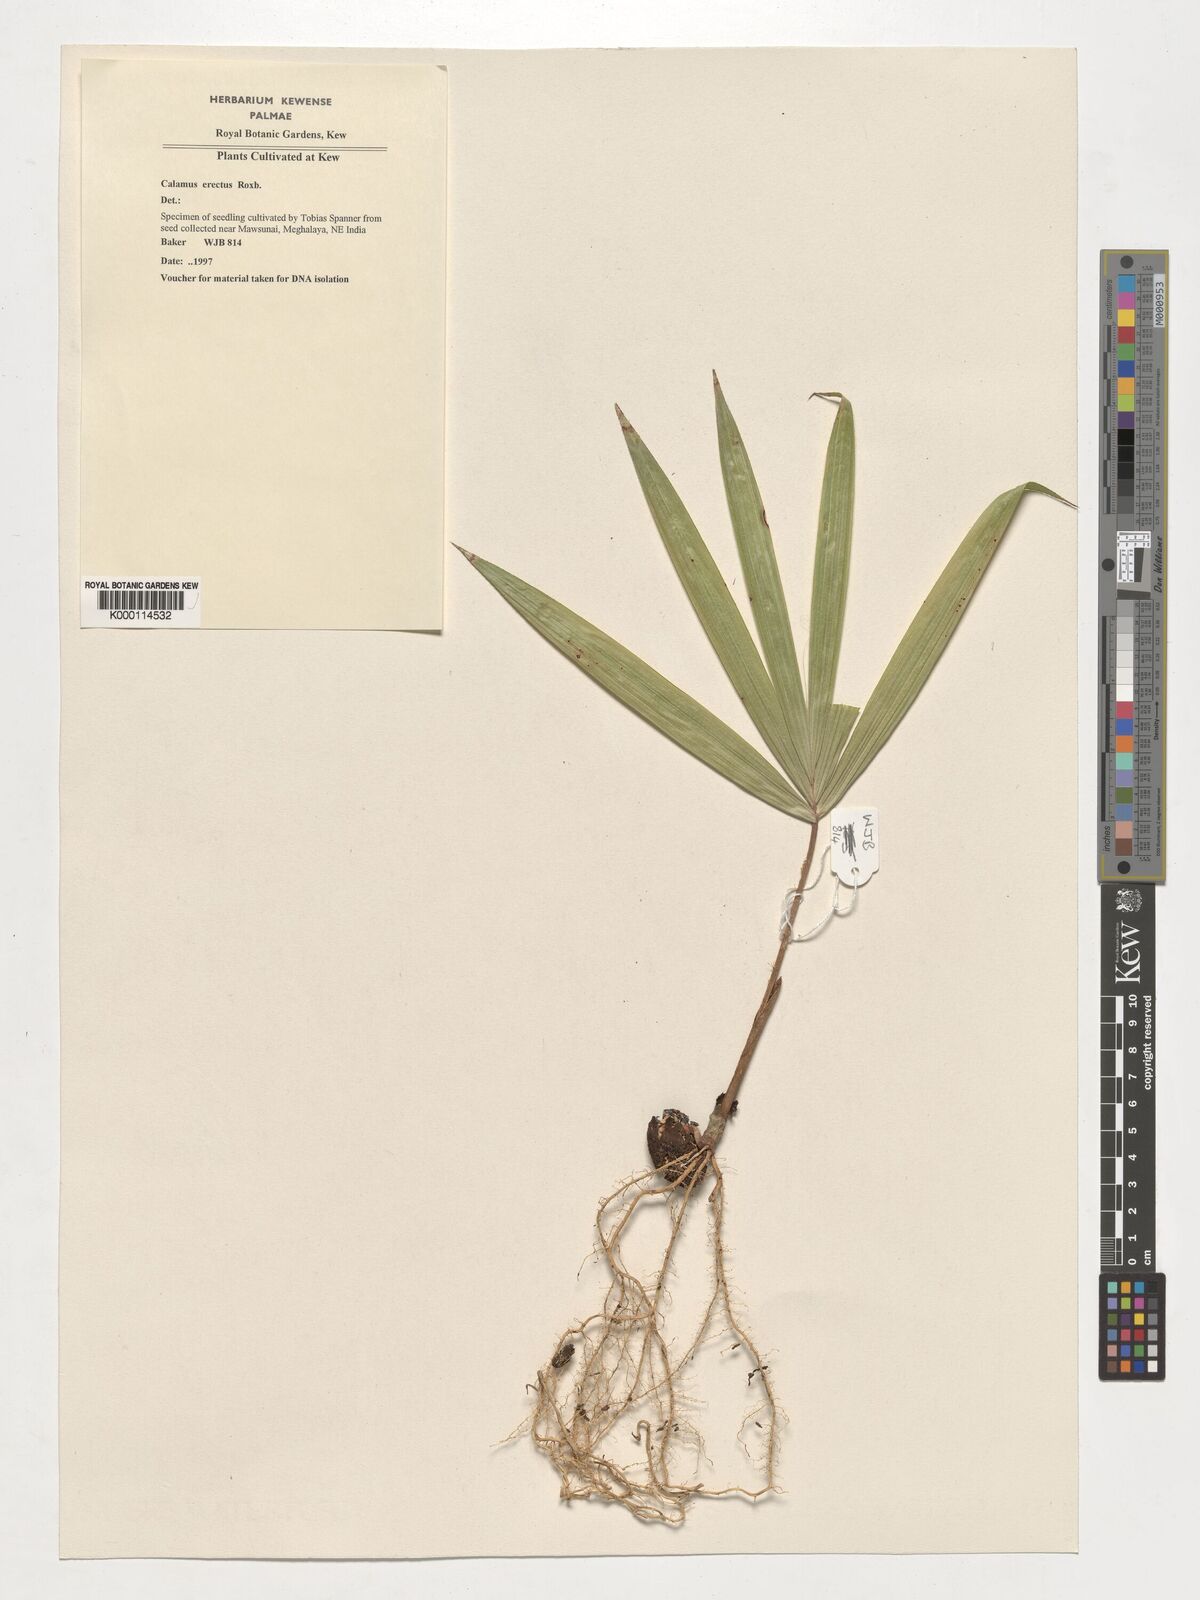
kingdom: Plantae
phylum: Tracheophyta
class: Liliopsida
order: Arecales
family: Arecaceae
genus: Calamus
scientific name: Calamus erectus
